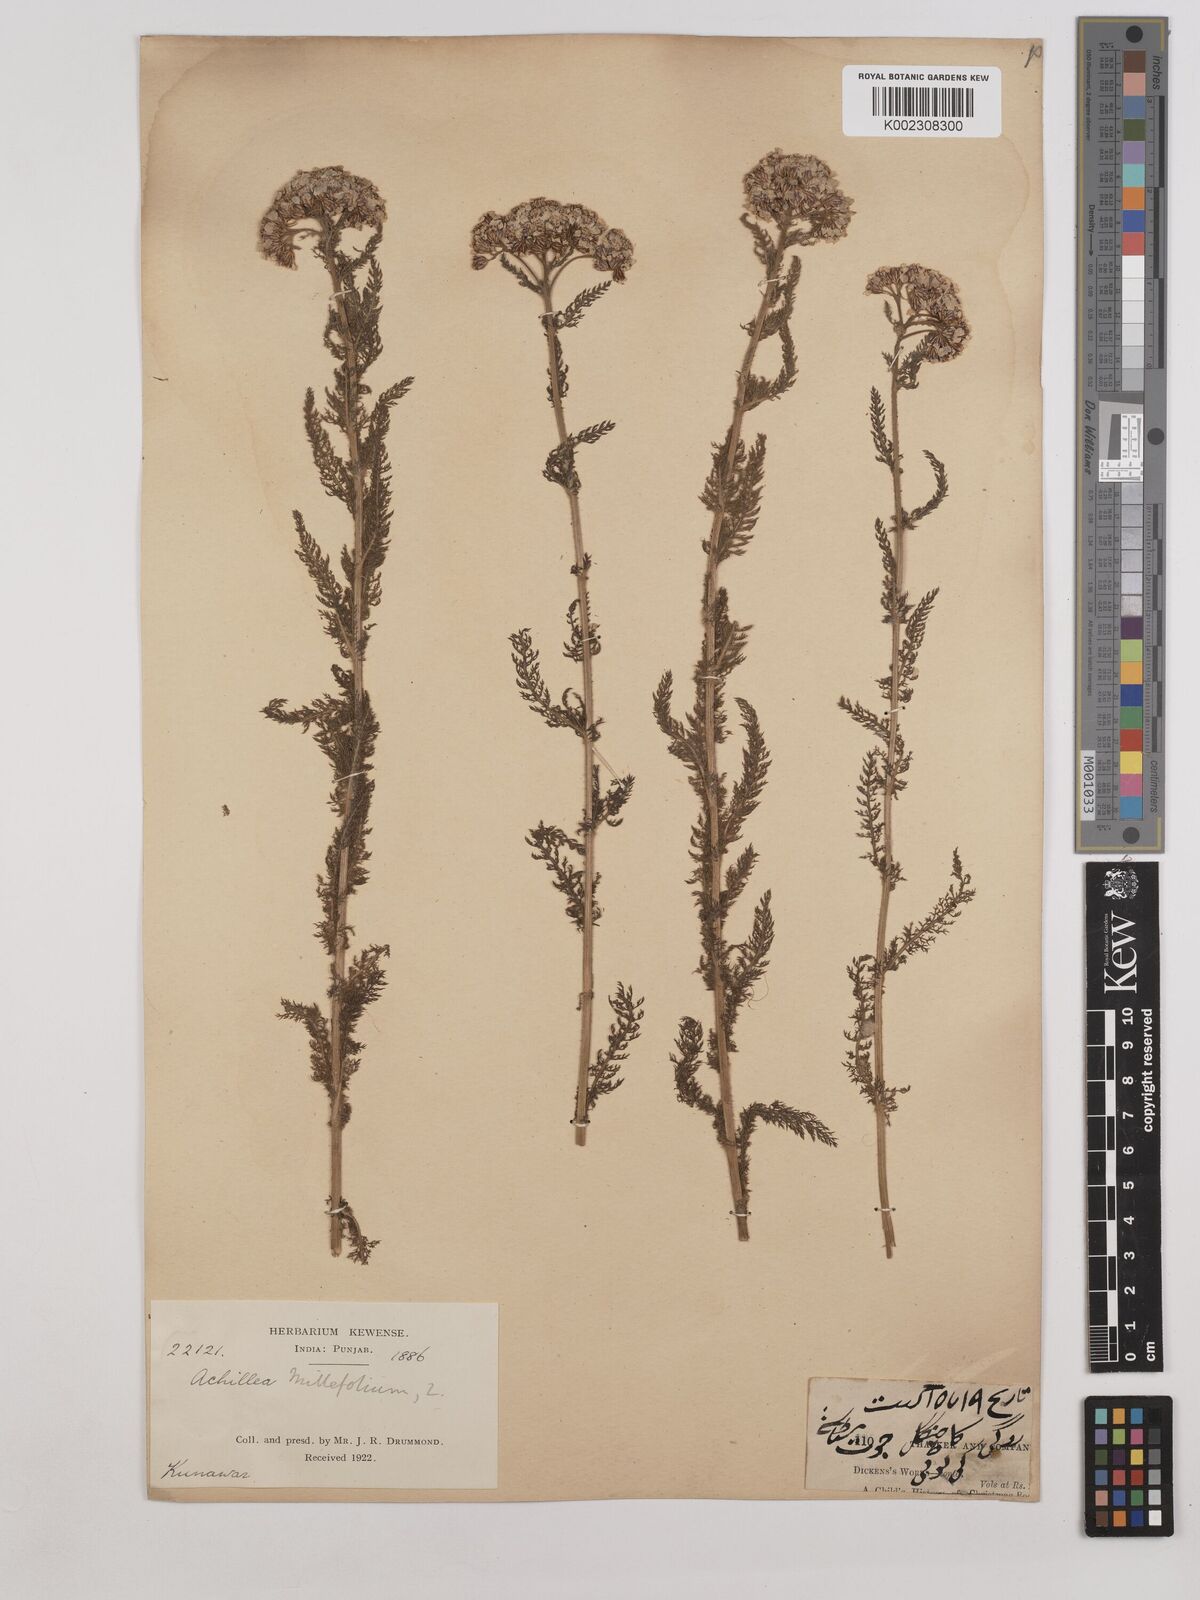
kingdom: Plantae
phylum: Tracheophyta
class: Magnoliopsida
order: Asterales
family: Asteraceae
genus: Achillea
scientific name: Achillea millefolium
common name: Yarrow
